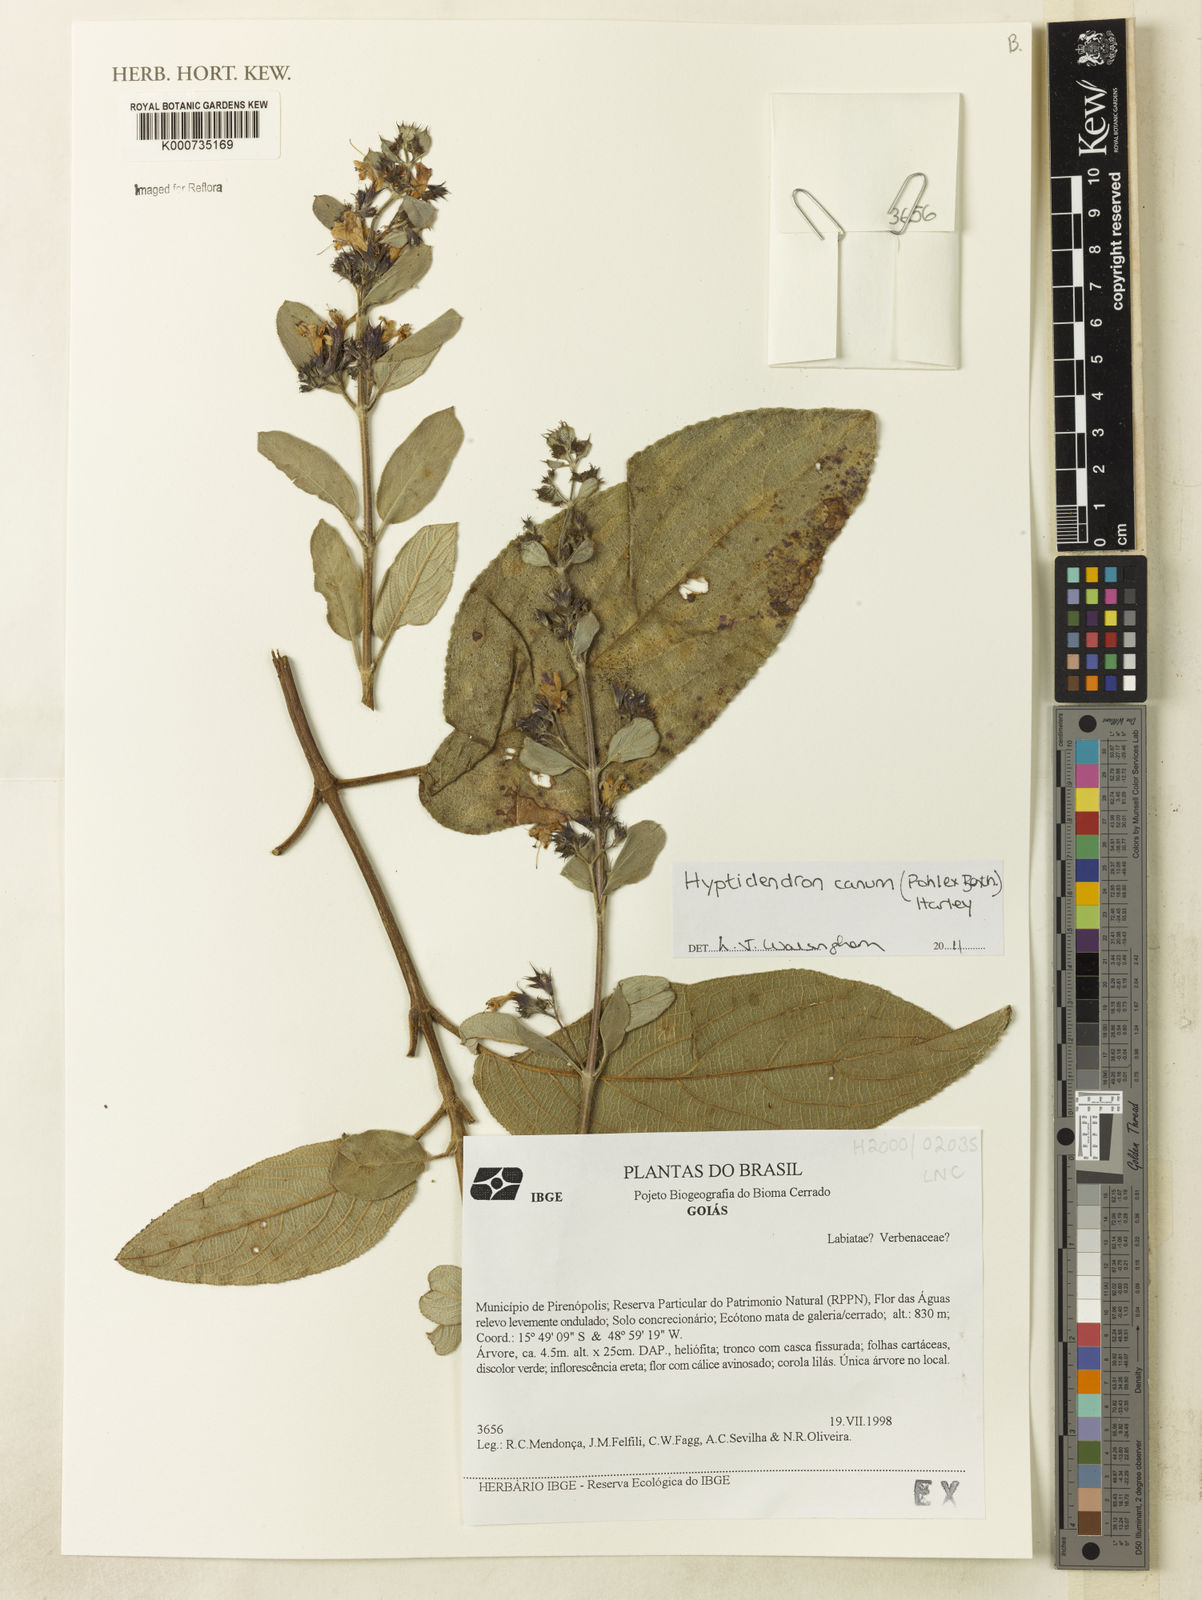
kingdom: Plantae
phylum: Tracheophyta
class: Magnoliopsida
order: Lamiales
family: Lamiaceae
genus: Hyptidendron
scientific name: Hyptidendron canum
